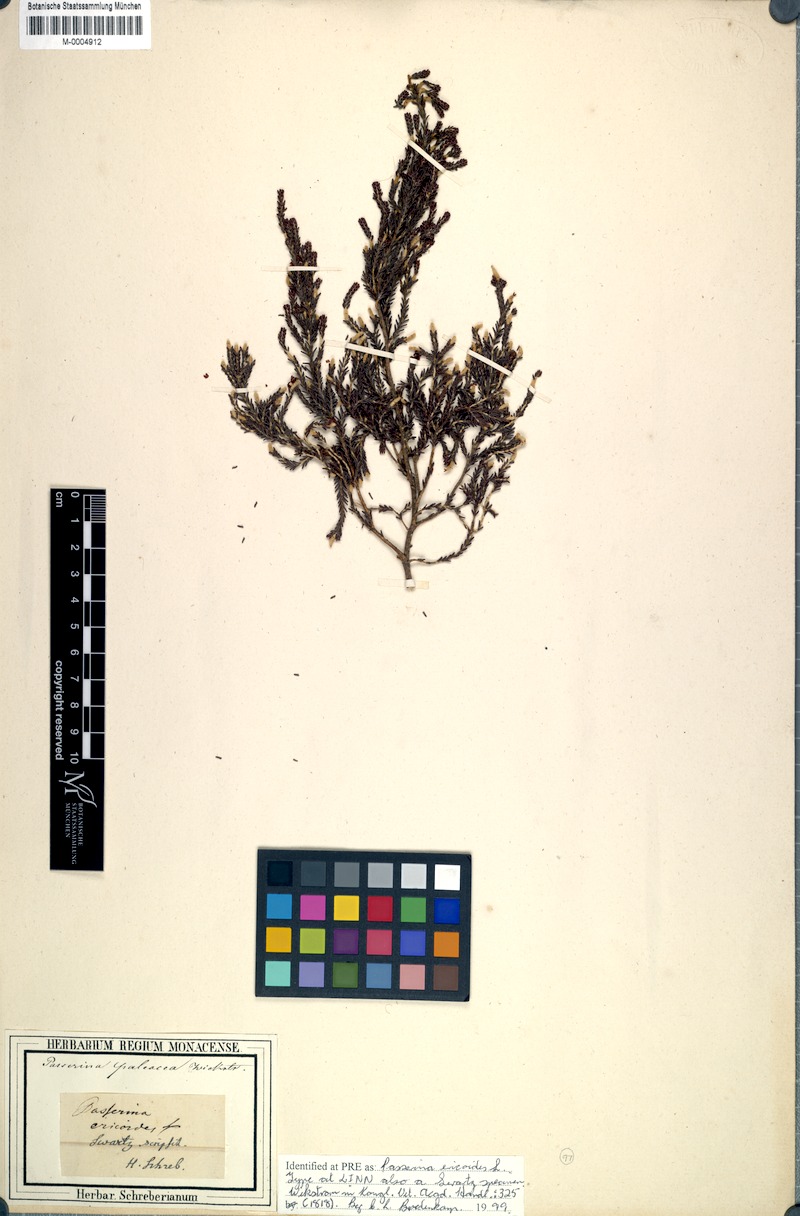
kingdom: Plantae
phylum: Tracheophyta
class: Magnoliopsida
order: Malvales
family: Thymelaeaceae
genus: Passerina
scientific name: Passerina ericoides
